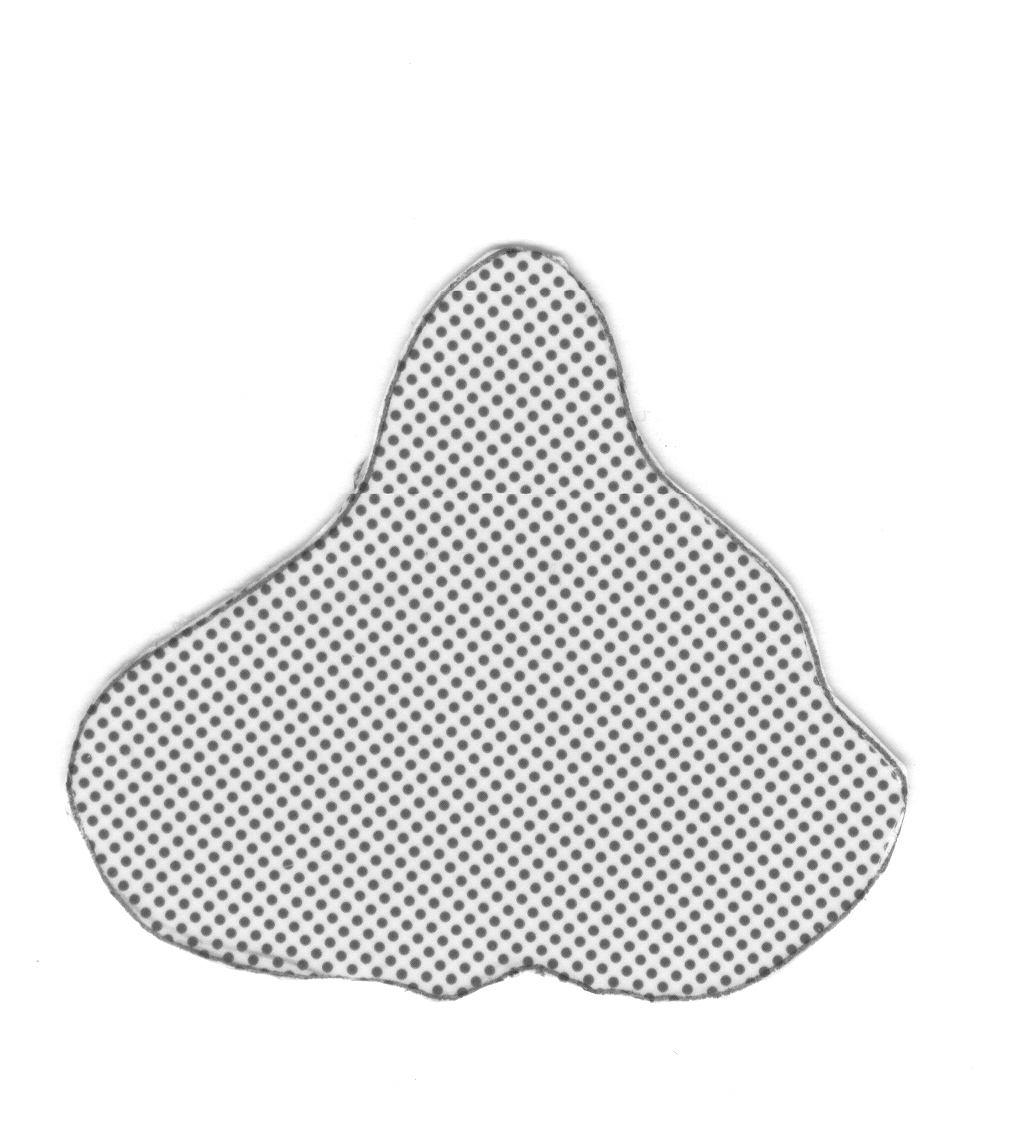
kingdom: Animalia
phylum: Chordata
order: Perciformes
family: Serranidae
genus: Meganthias
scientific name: Meganthias natalensis
